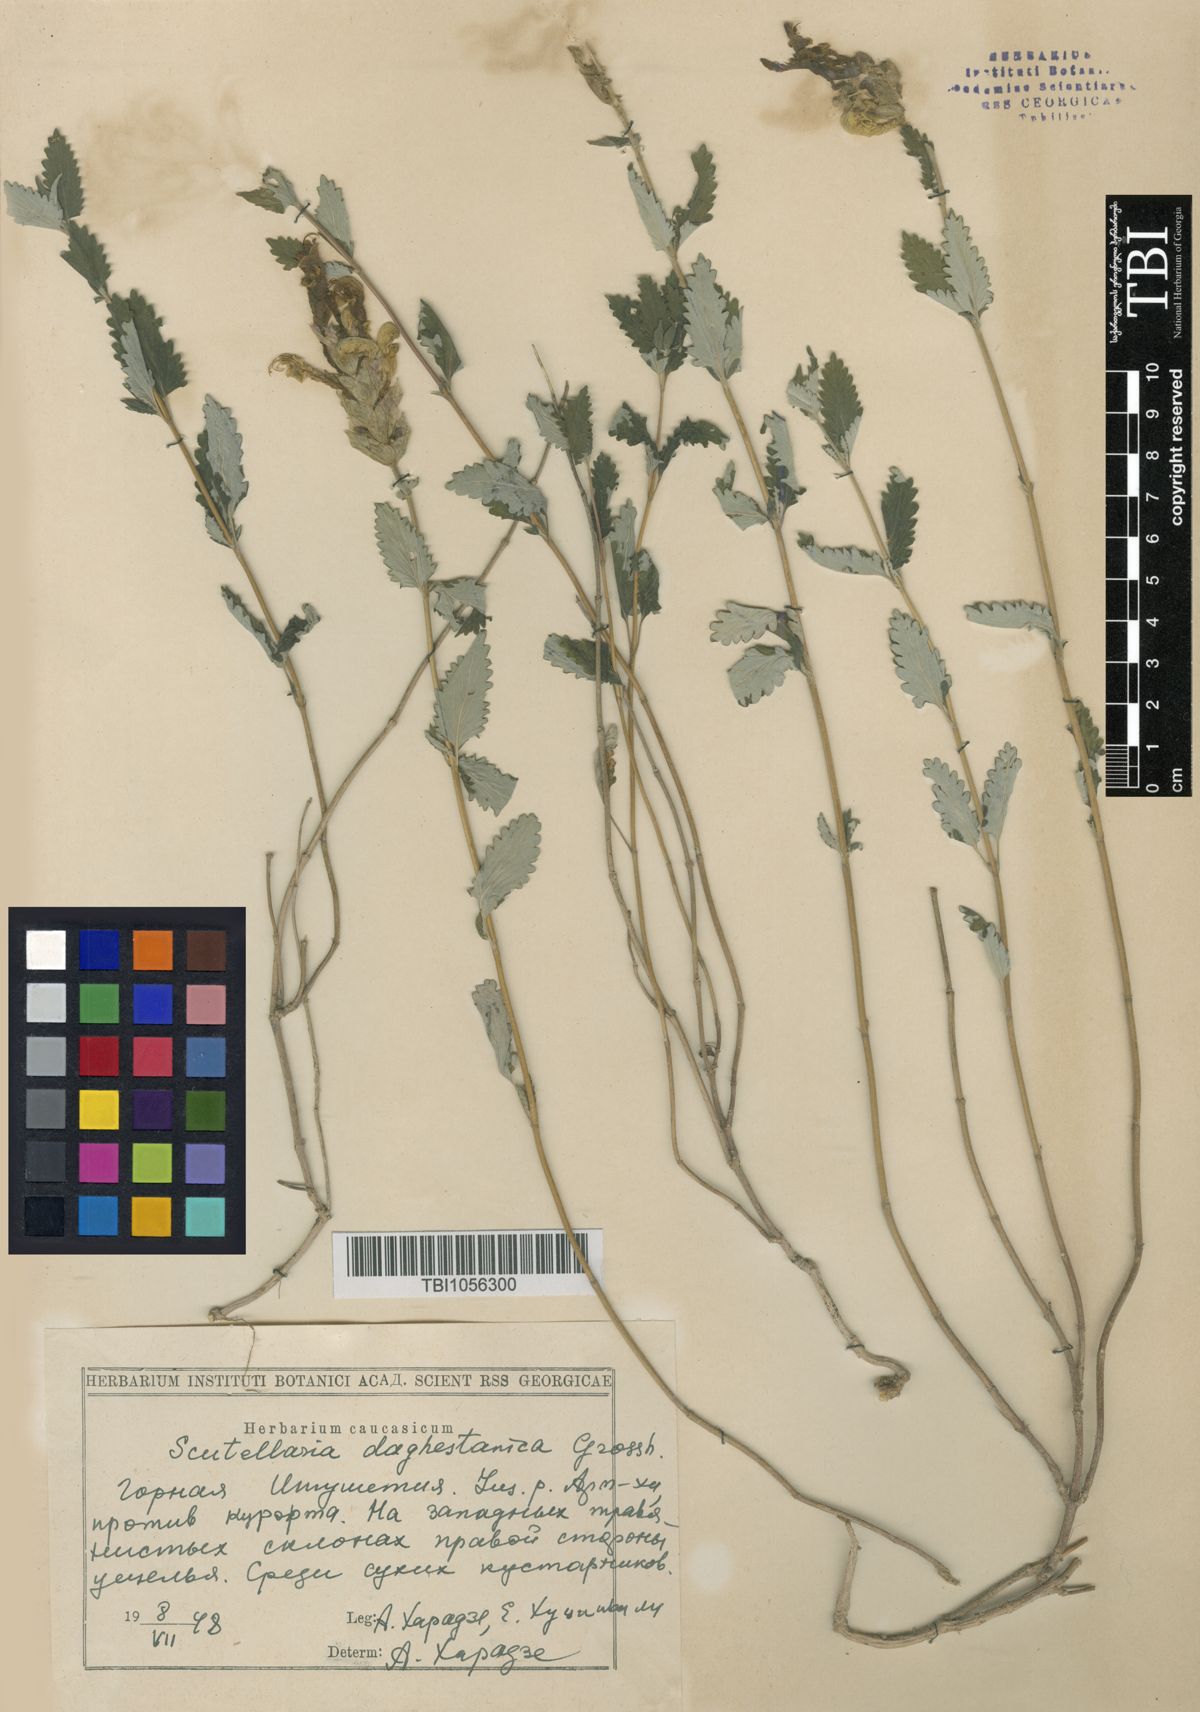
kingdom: Plantae
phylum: Tracheophyta
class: Magnoliopsida
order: Lamiales
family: Lamiaceae
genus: Scutellaria
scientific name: Scutellaria daghestanica
